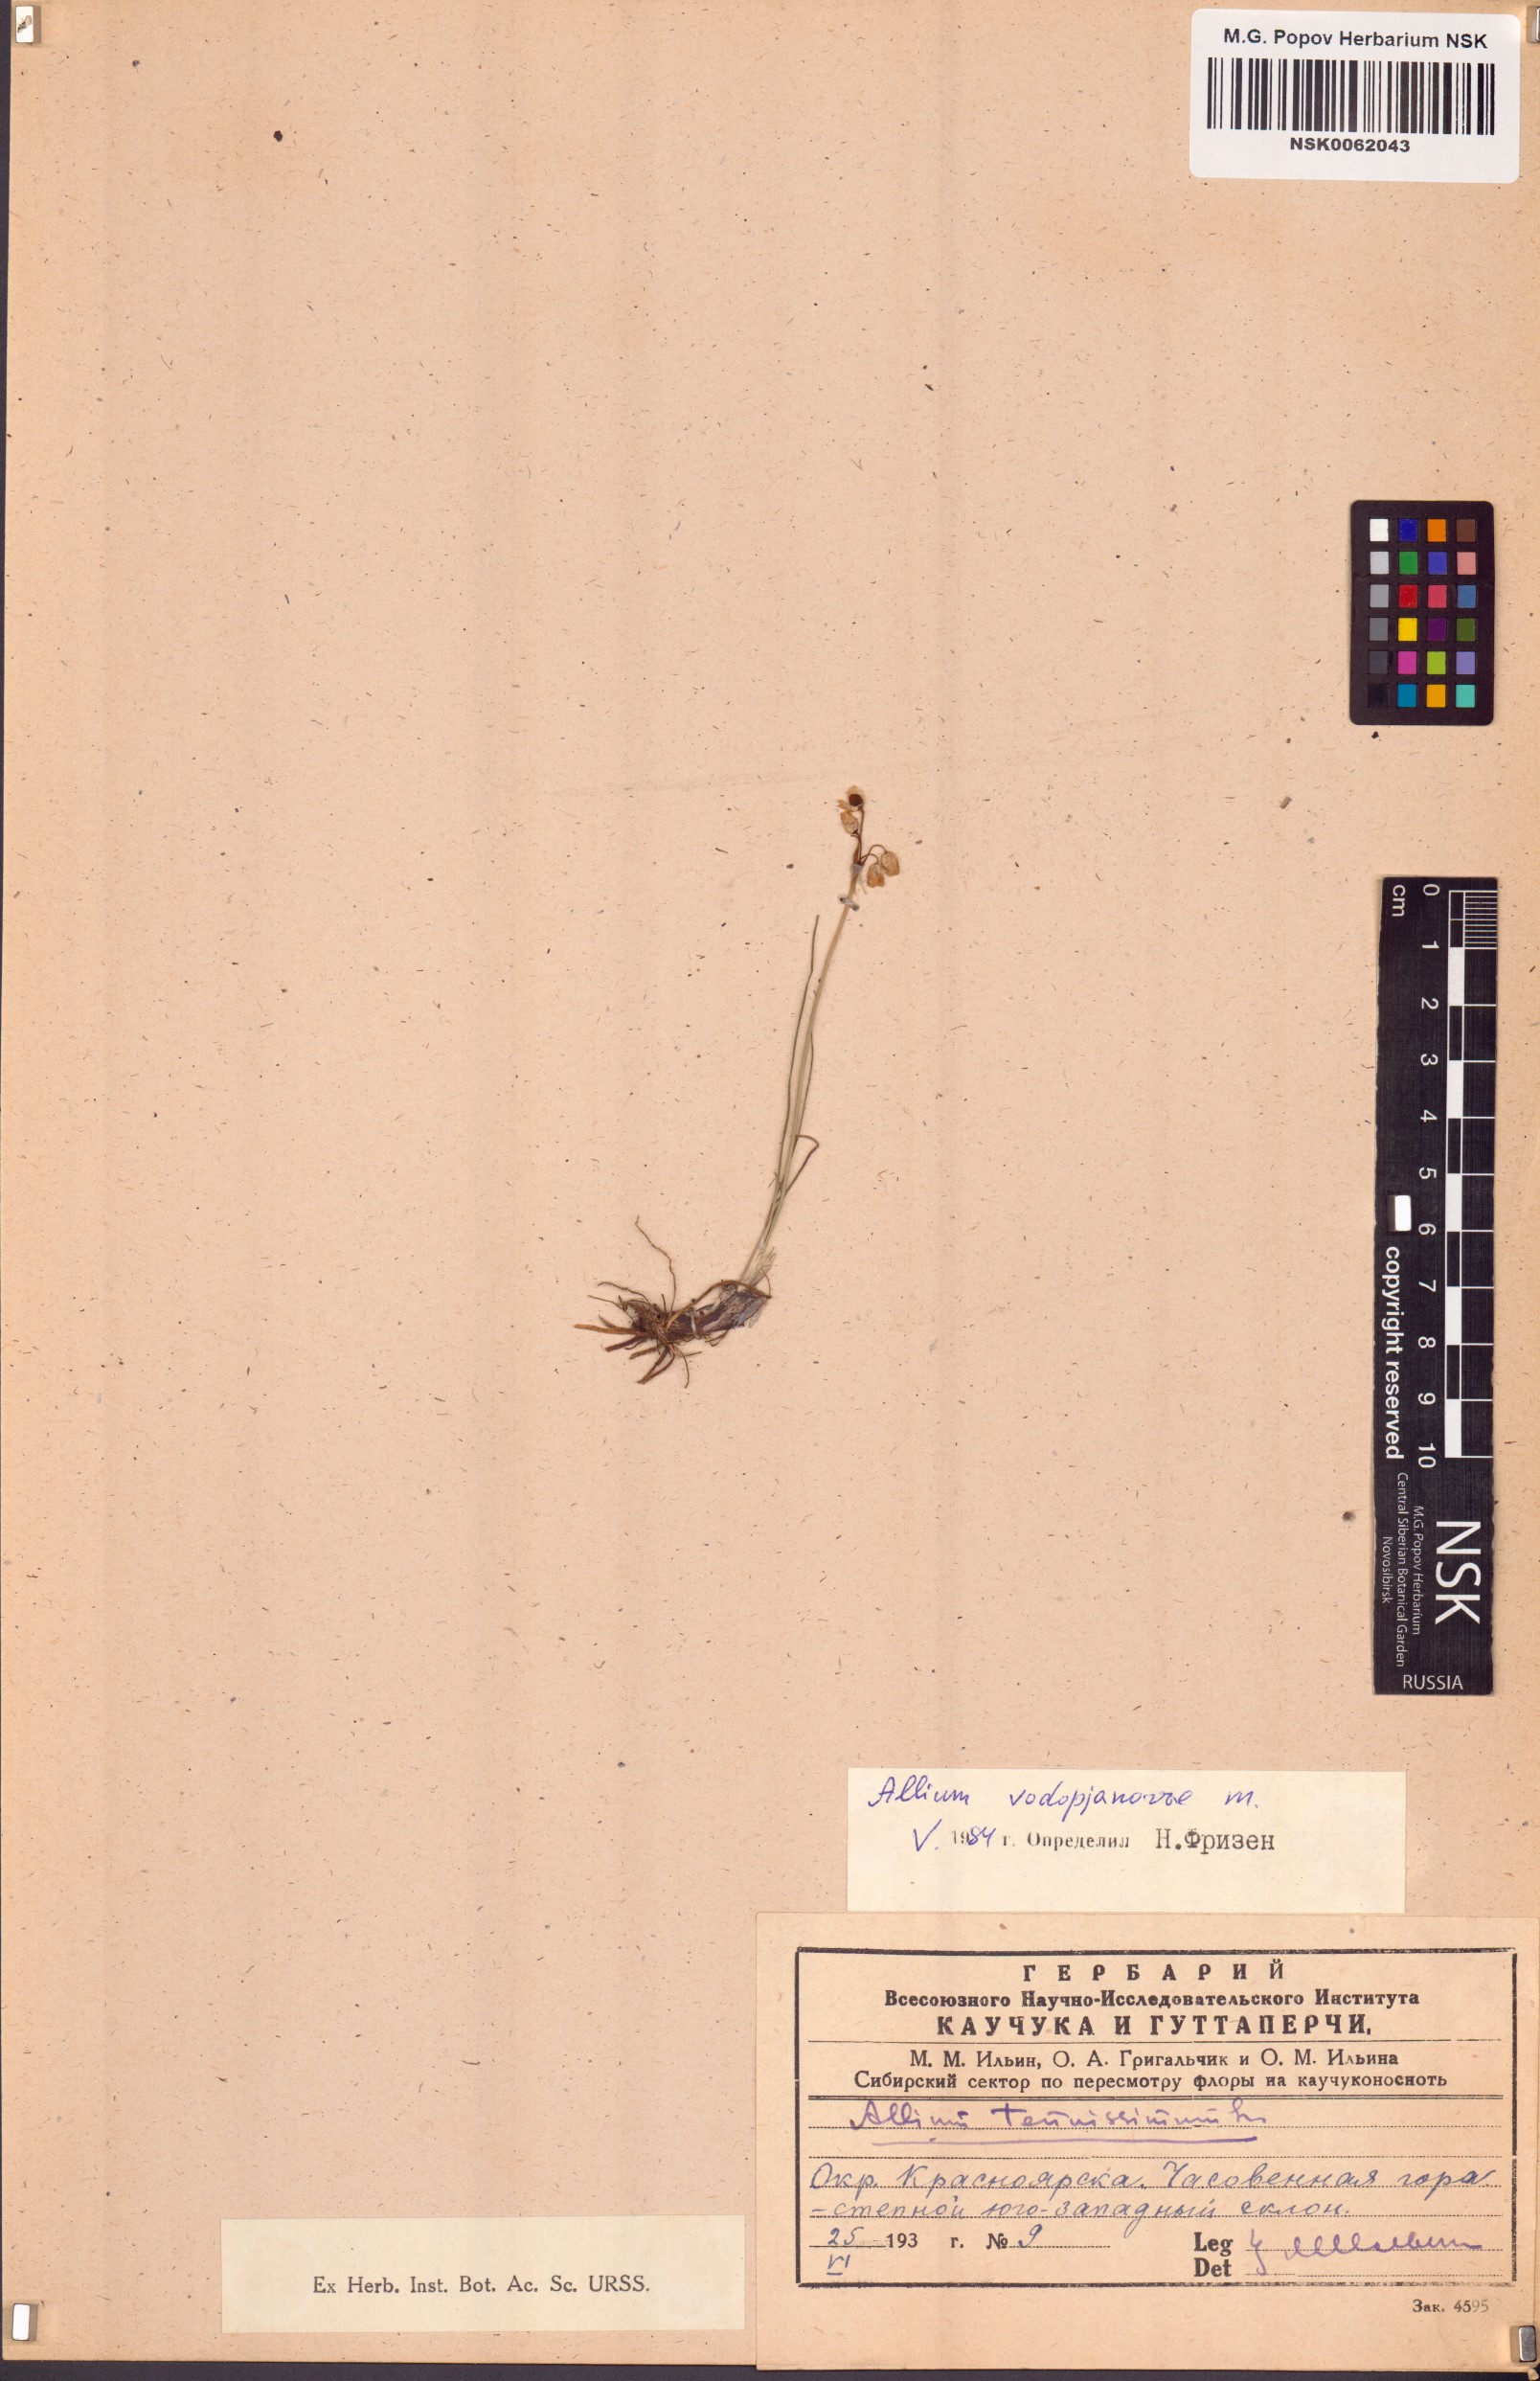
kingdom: Plantae
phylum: Tracheophyta
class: Liliopsida
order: Asparagales
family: Amaryllidaceae
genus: Allium
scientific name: Allium vodopjanovae
